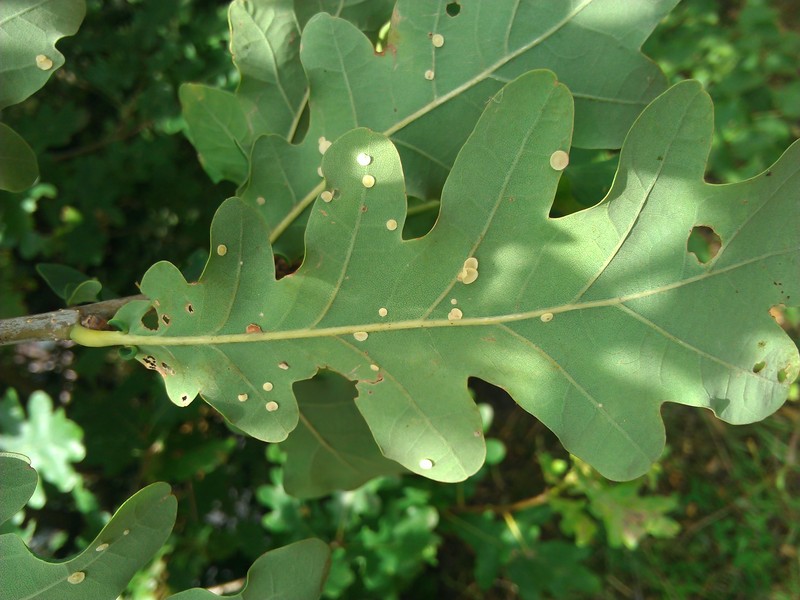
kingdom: Animalia
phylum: Arthropoda
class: Insecta
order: Hymenoptera
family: Cynipidae
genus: Neuroterus
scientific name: Neuroterus tricolor
